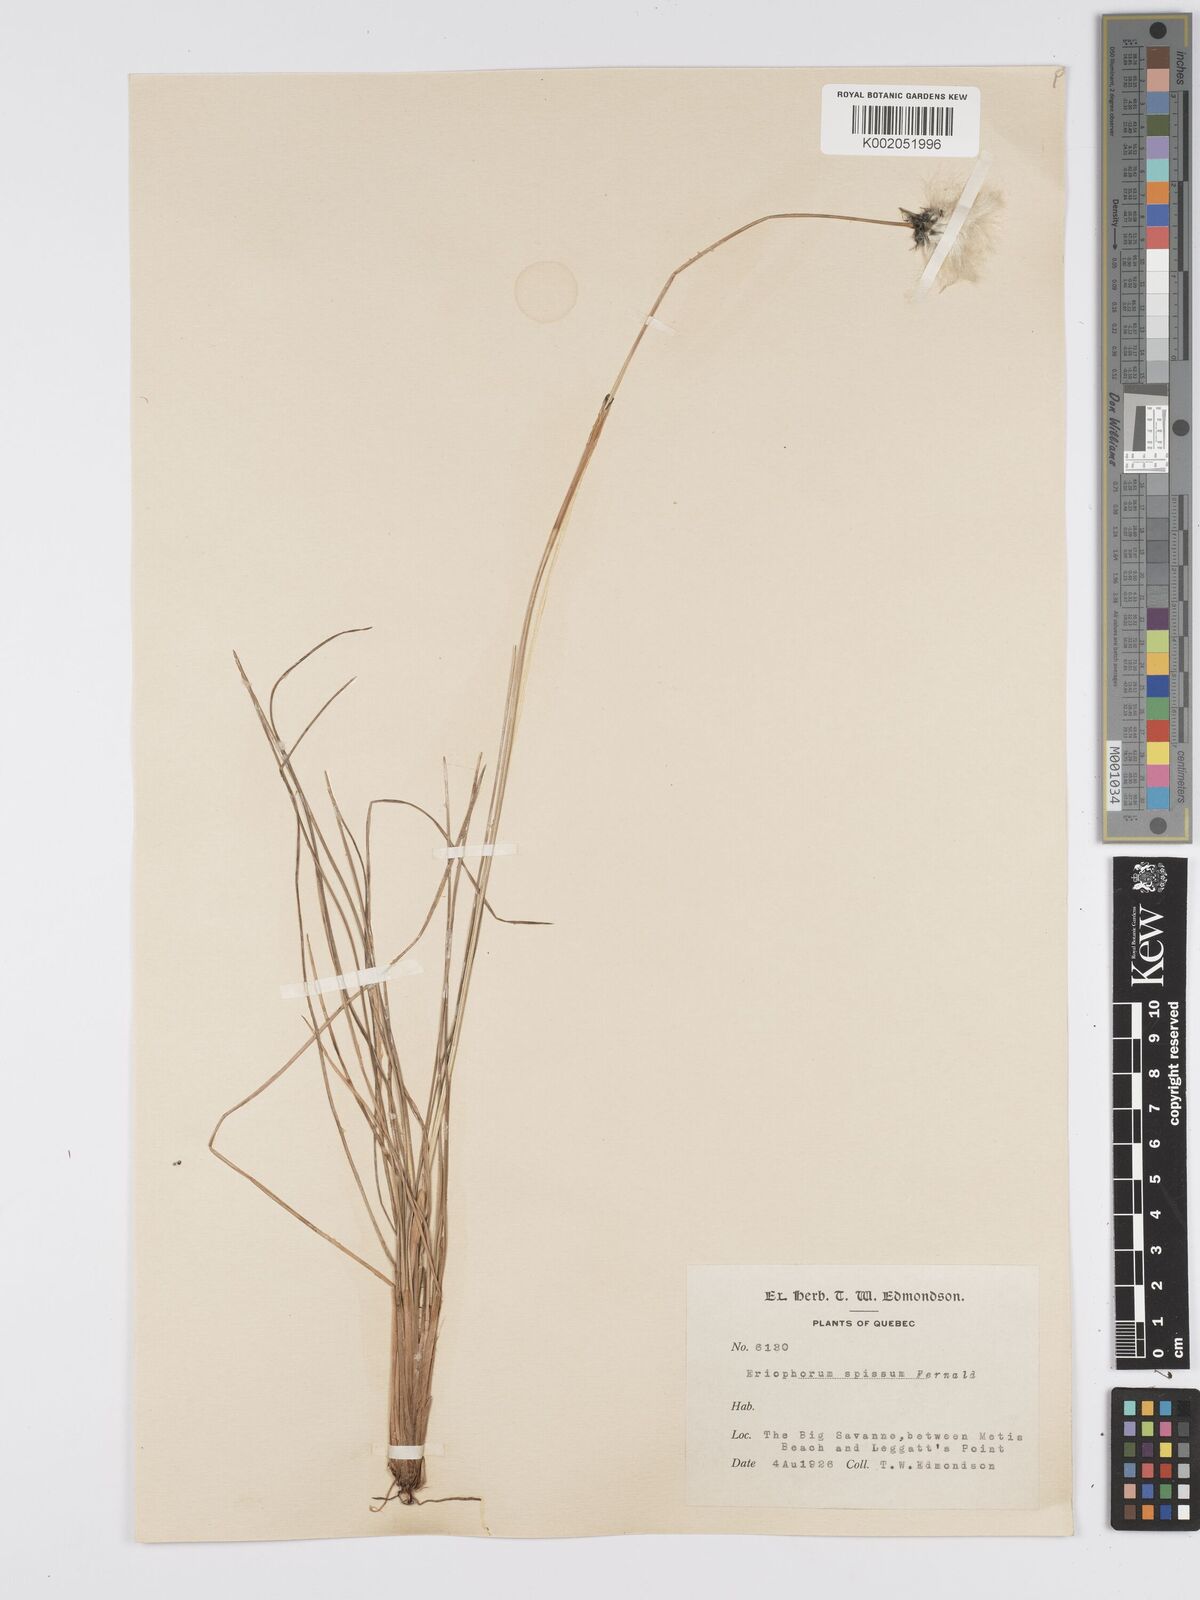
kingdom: Plantae
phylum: Tracheophyta
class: Liliopsida
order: Poales
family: Cyperaceae
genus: Eriophorum
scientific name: Eriophorum vaginatum
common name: Hare's-tail cottongrass
